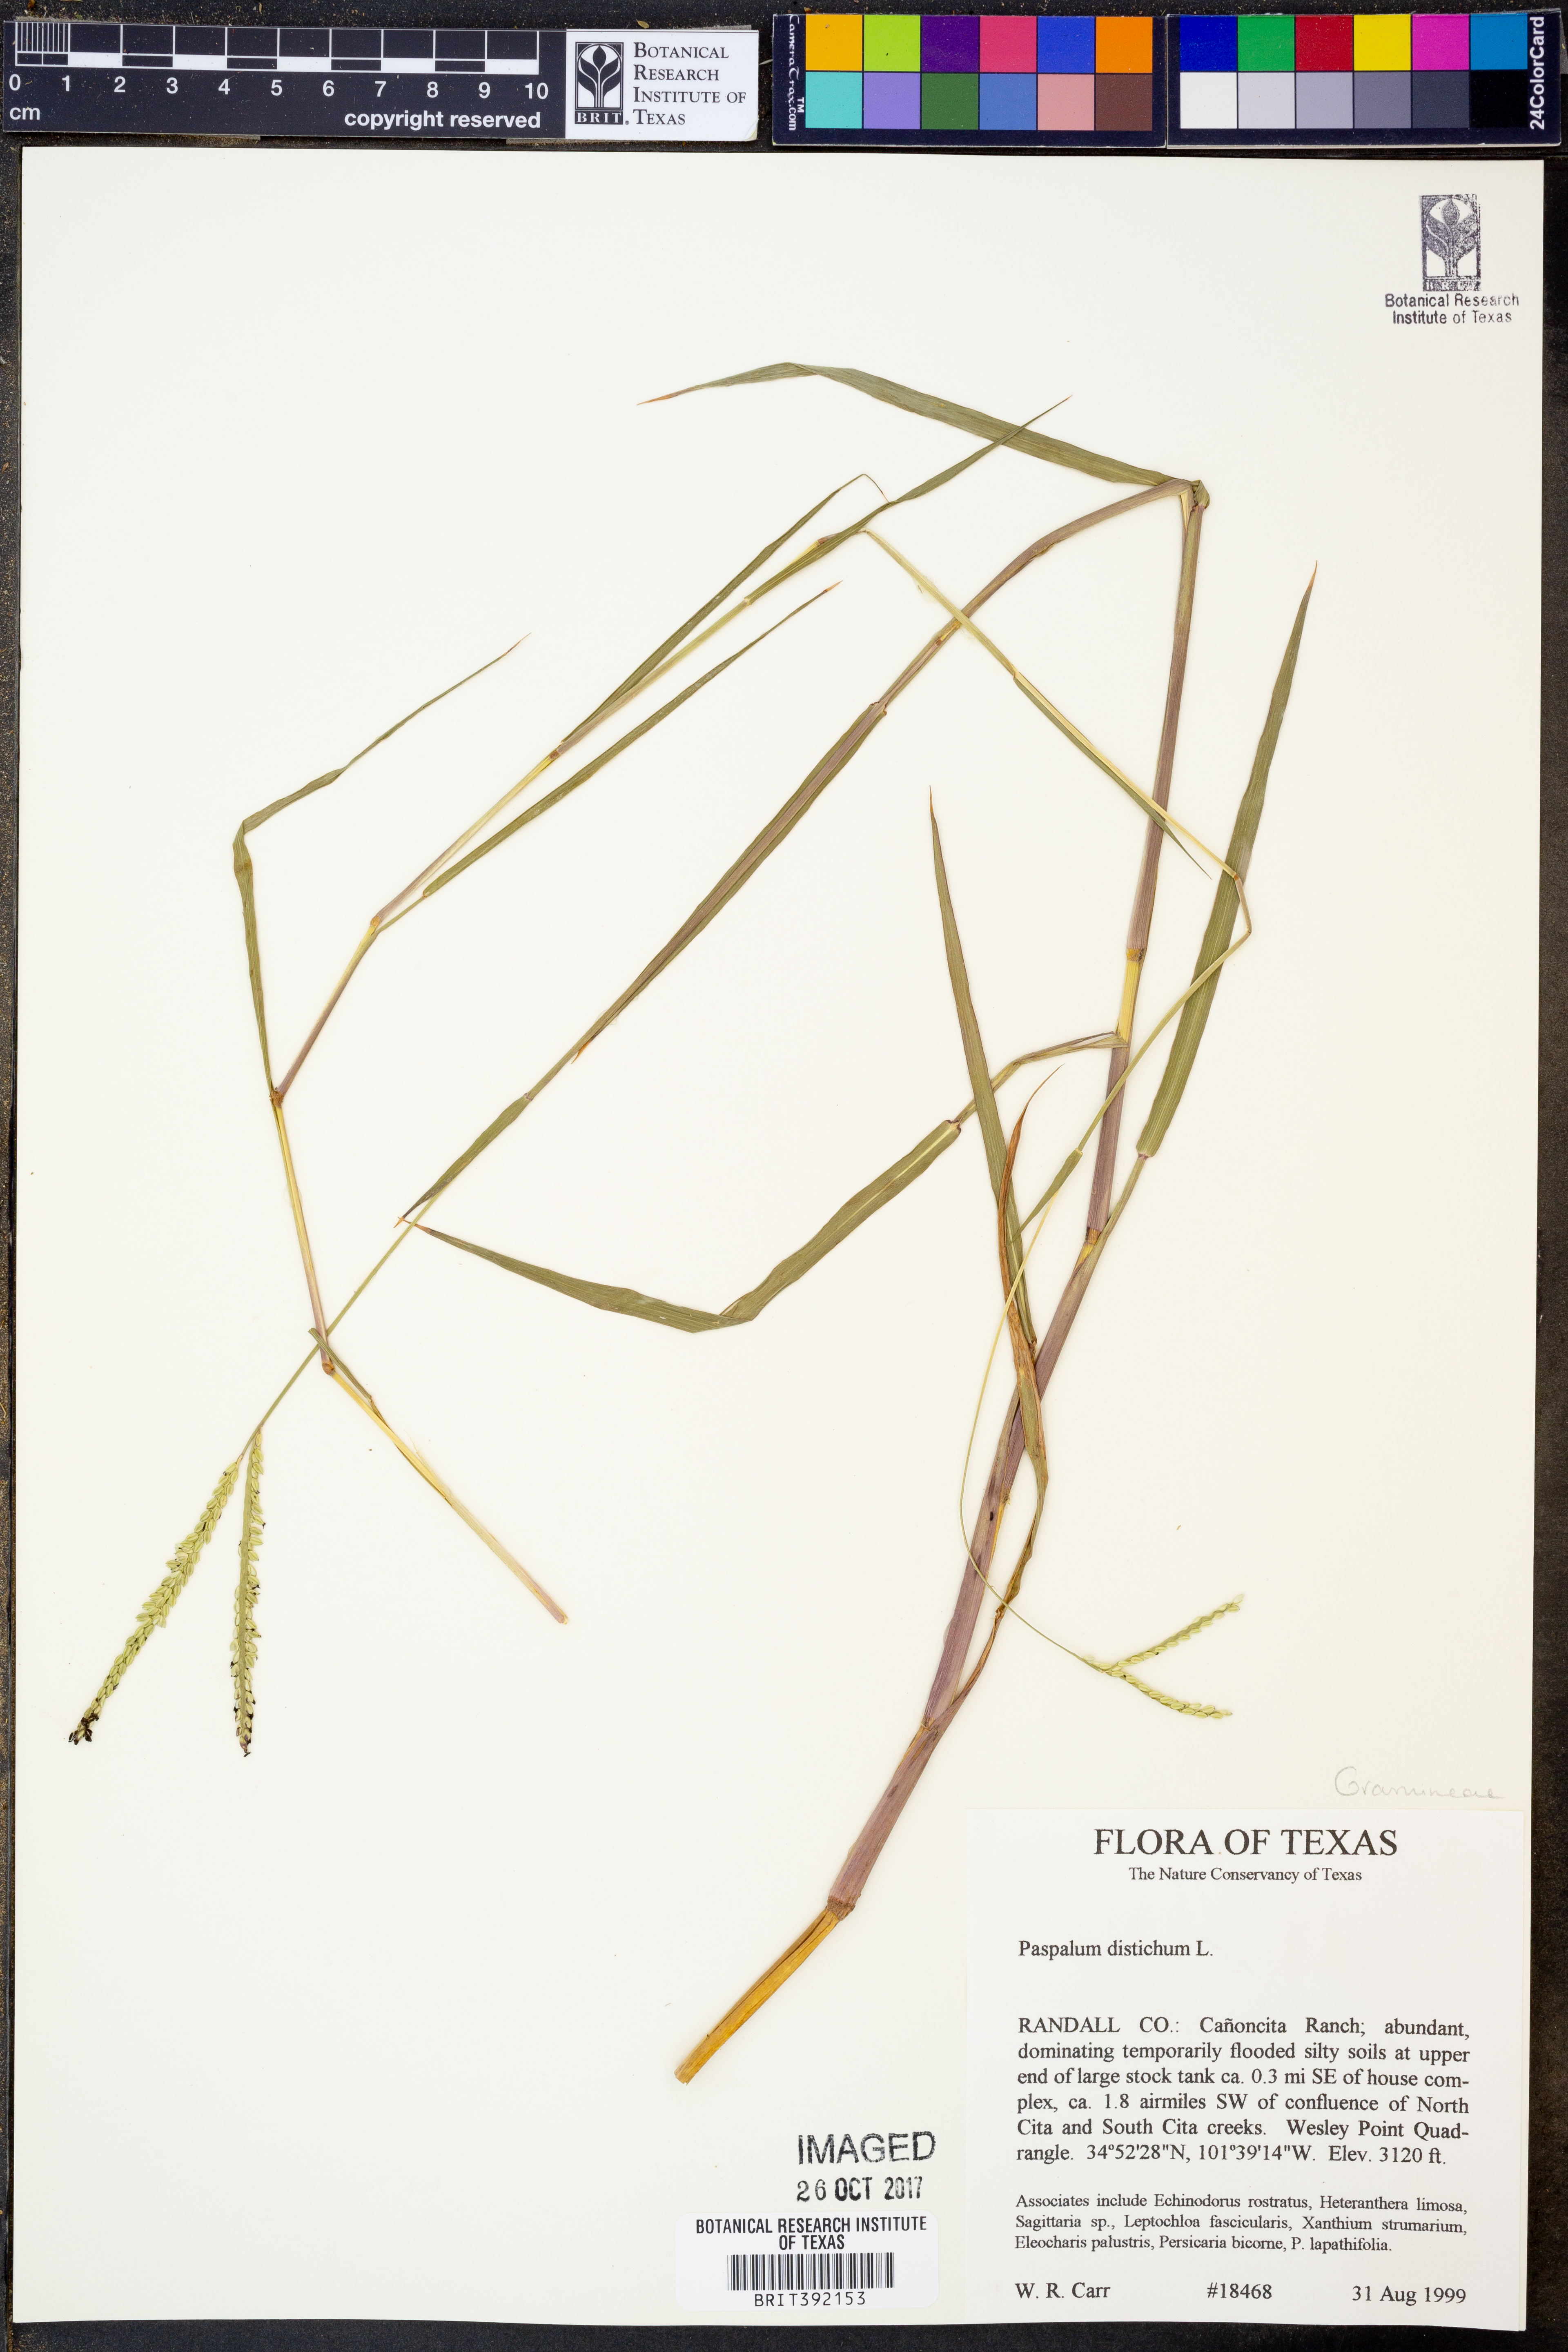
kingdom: Plantae
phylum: Tracheophyta
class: Liliopsida
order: Poales
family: Poaceae
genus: Paspalum
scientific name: Paspalum distichum
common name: Knotgrass
